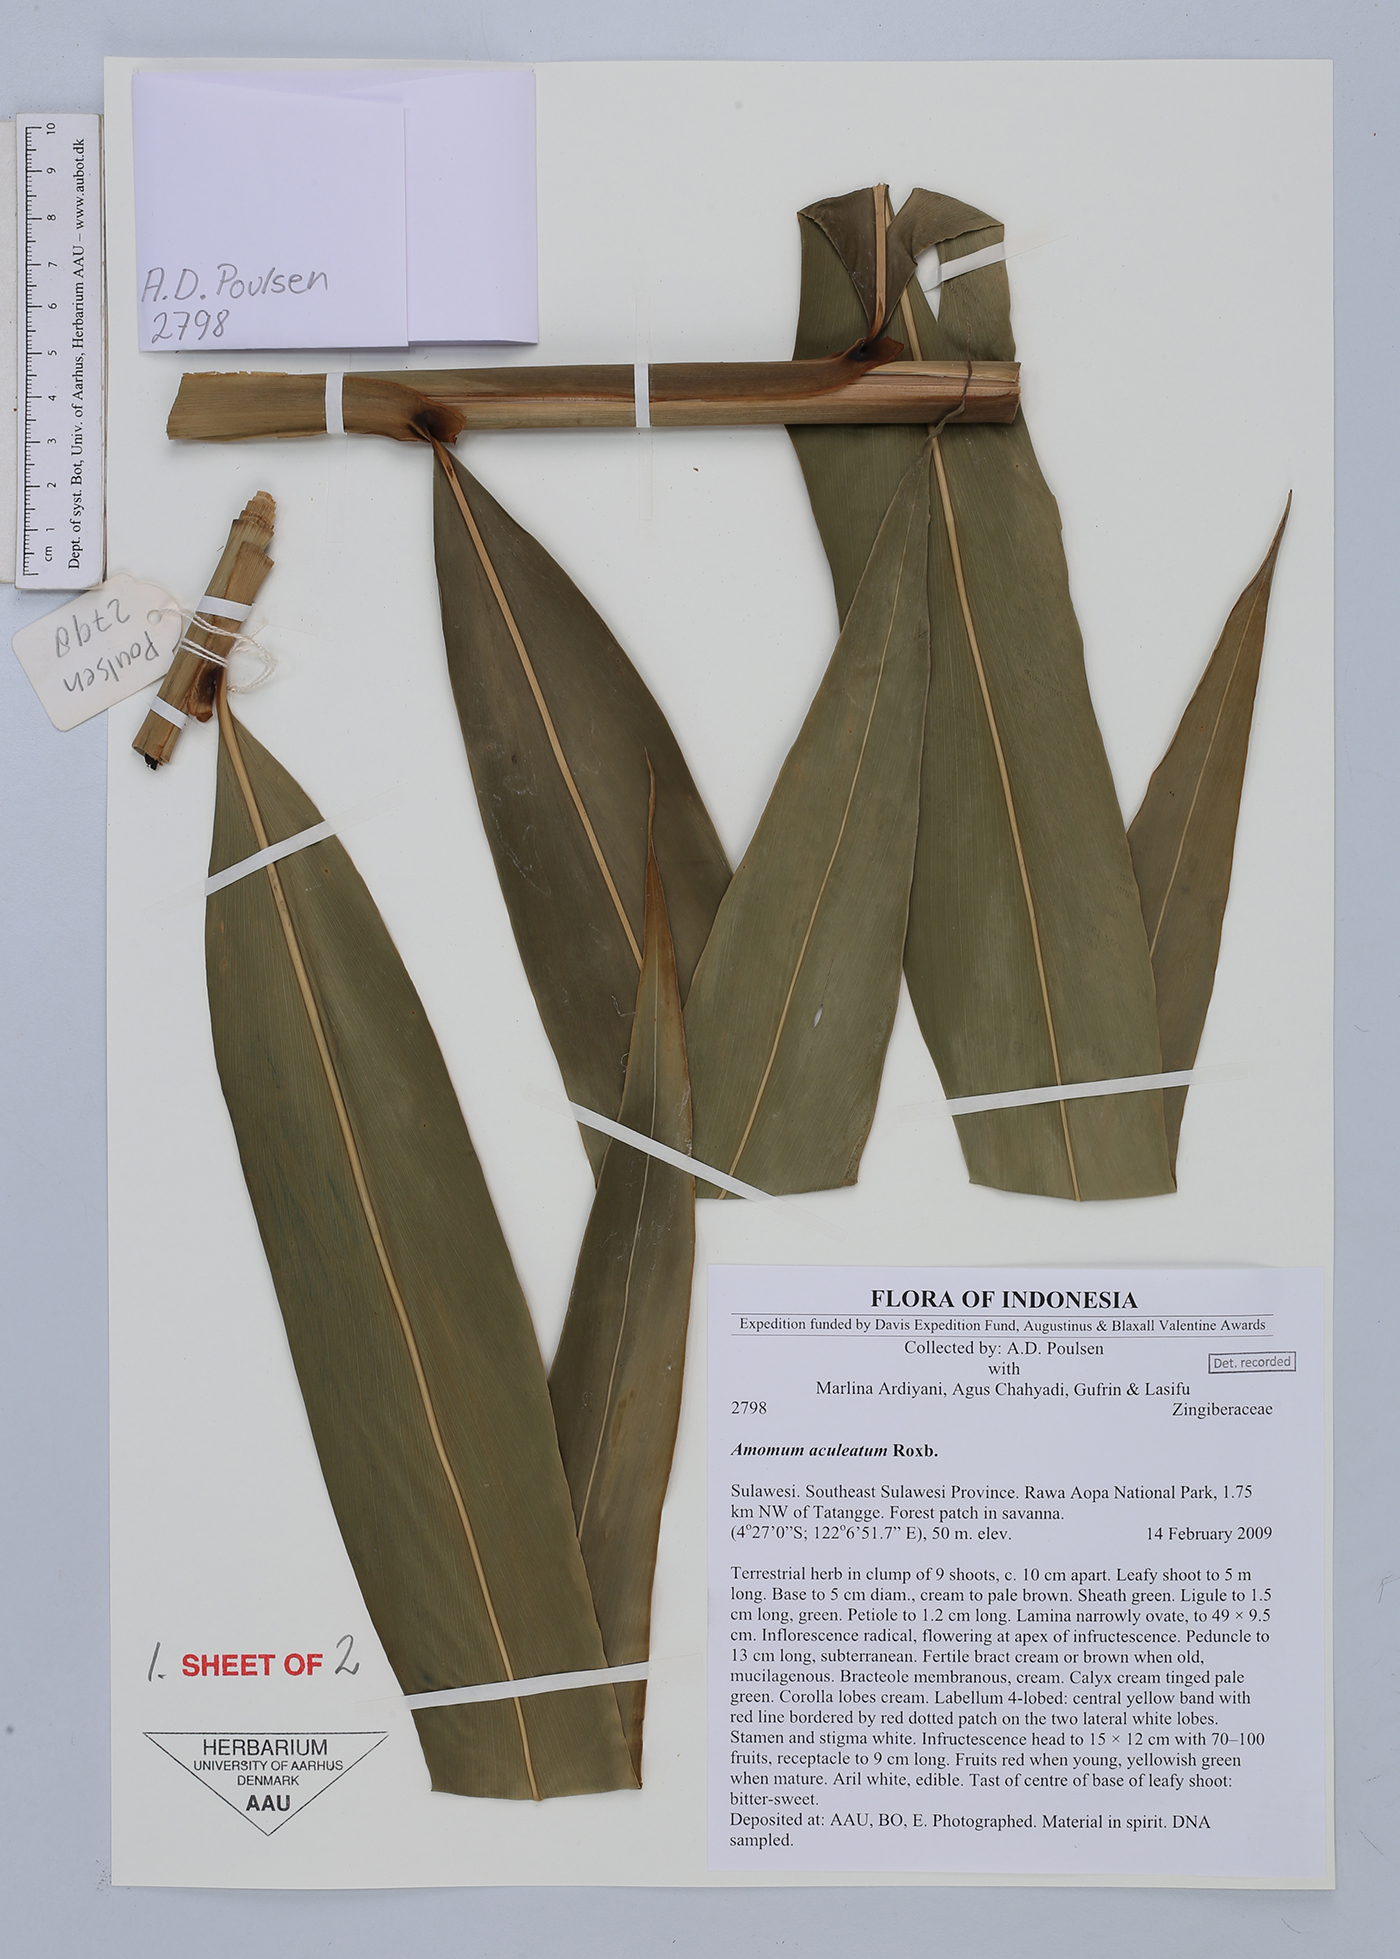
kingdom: Plantae
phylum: Tracheophyta
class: Liliopsida
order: Zingiberales
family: Zingiberaceae
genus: Meistera
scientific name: Meistera aculeata
